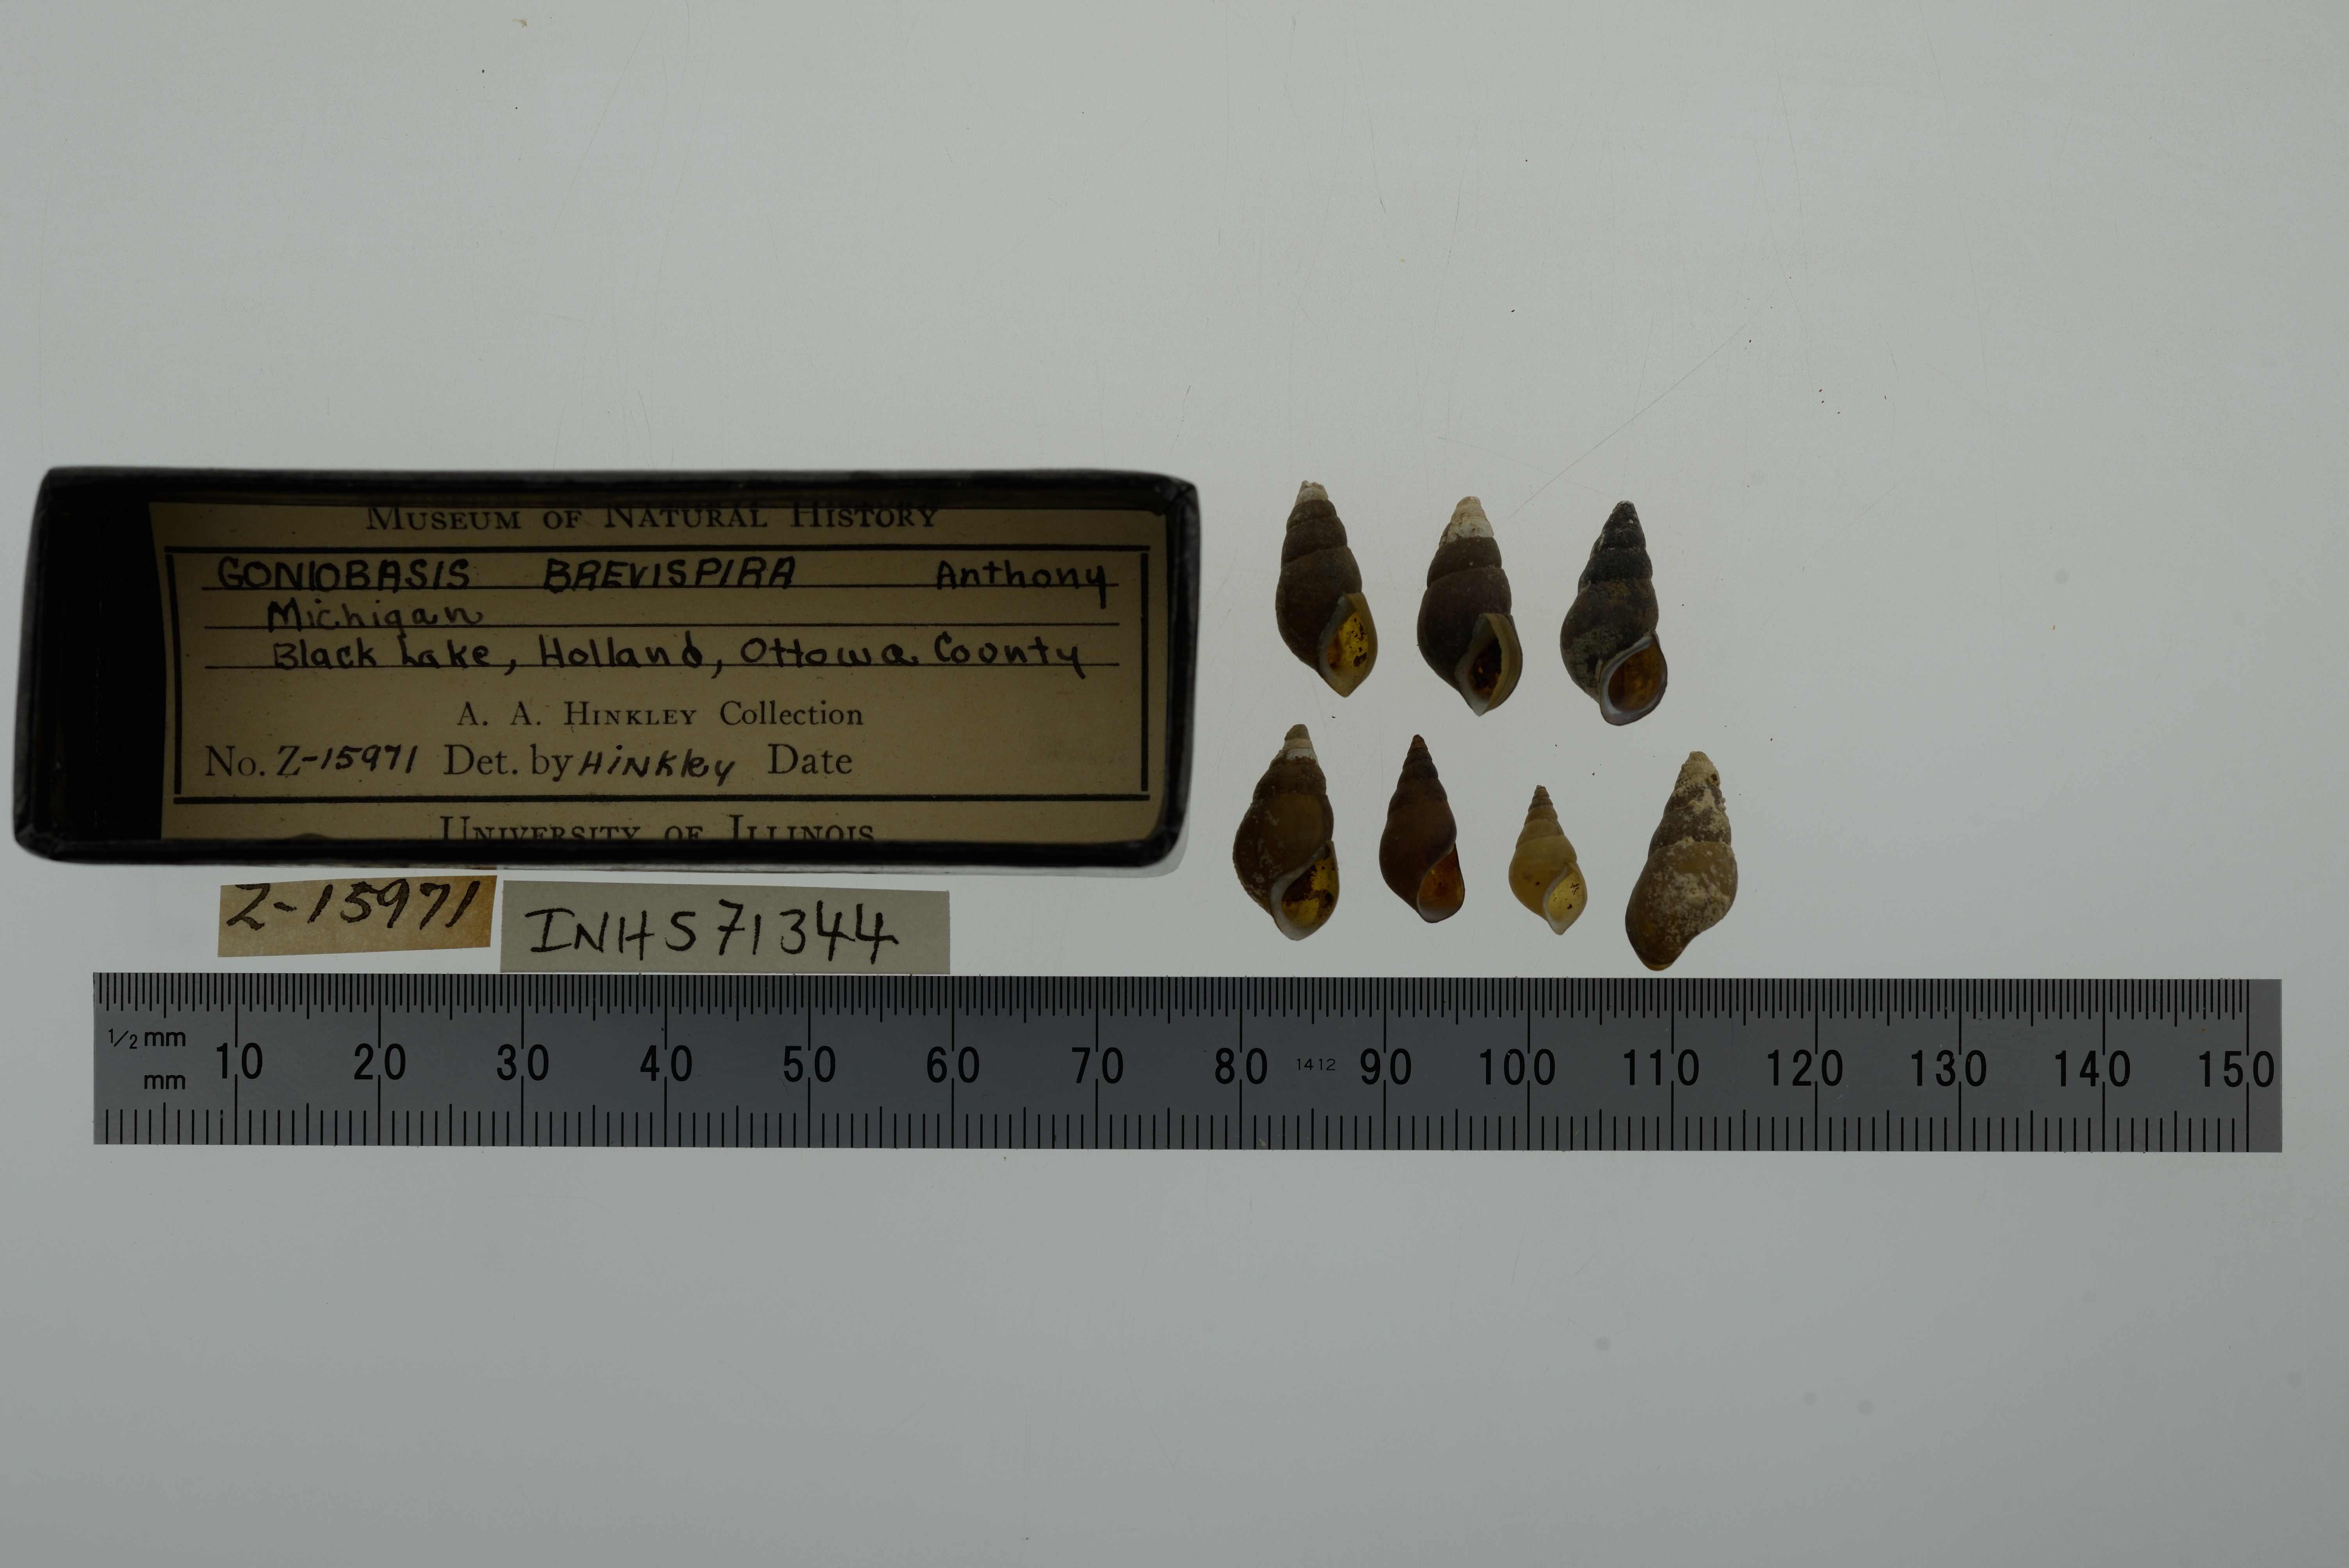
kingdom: Animalia
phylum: Mollusca
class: Gastropoda
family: Pleuroceridae
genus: Elimia
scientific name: Elimia livescens
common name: Liver elimia
